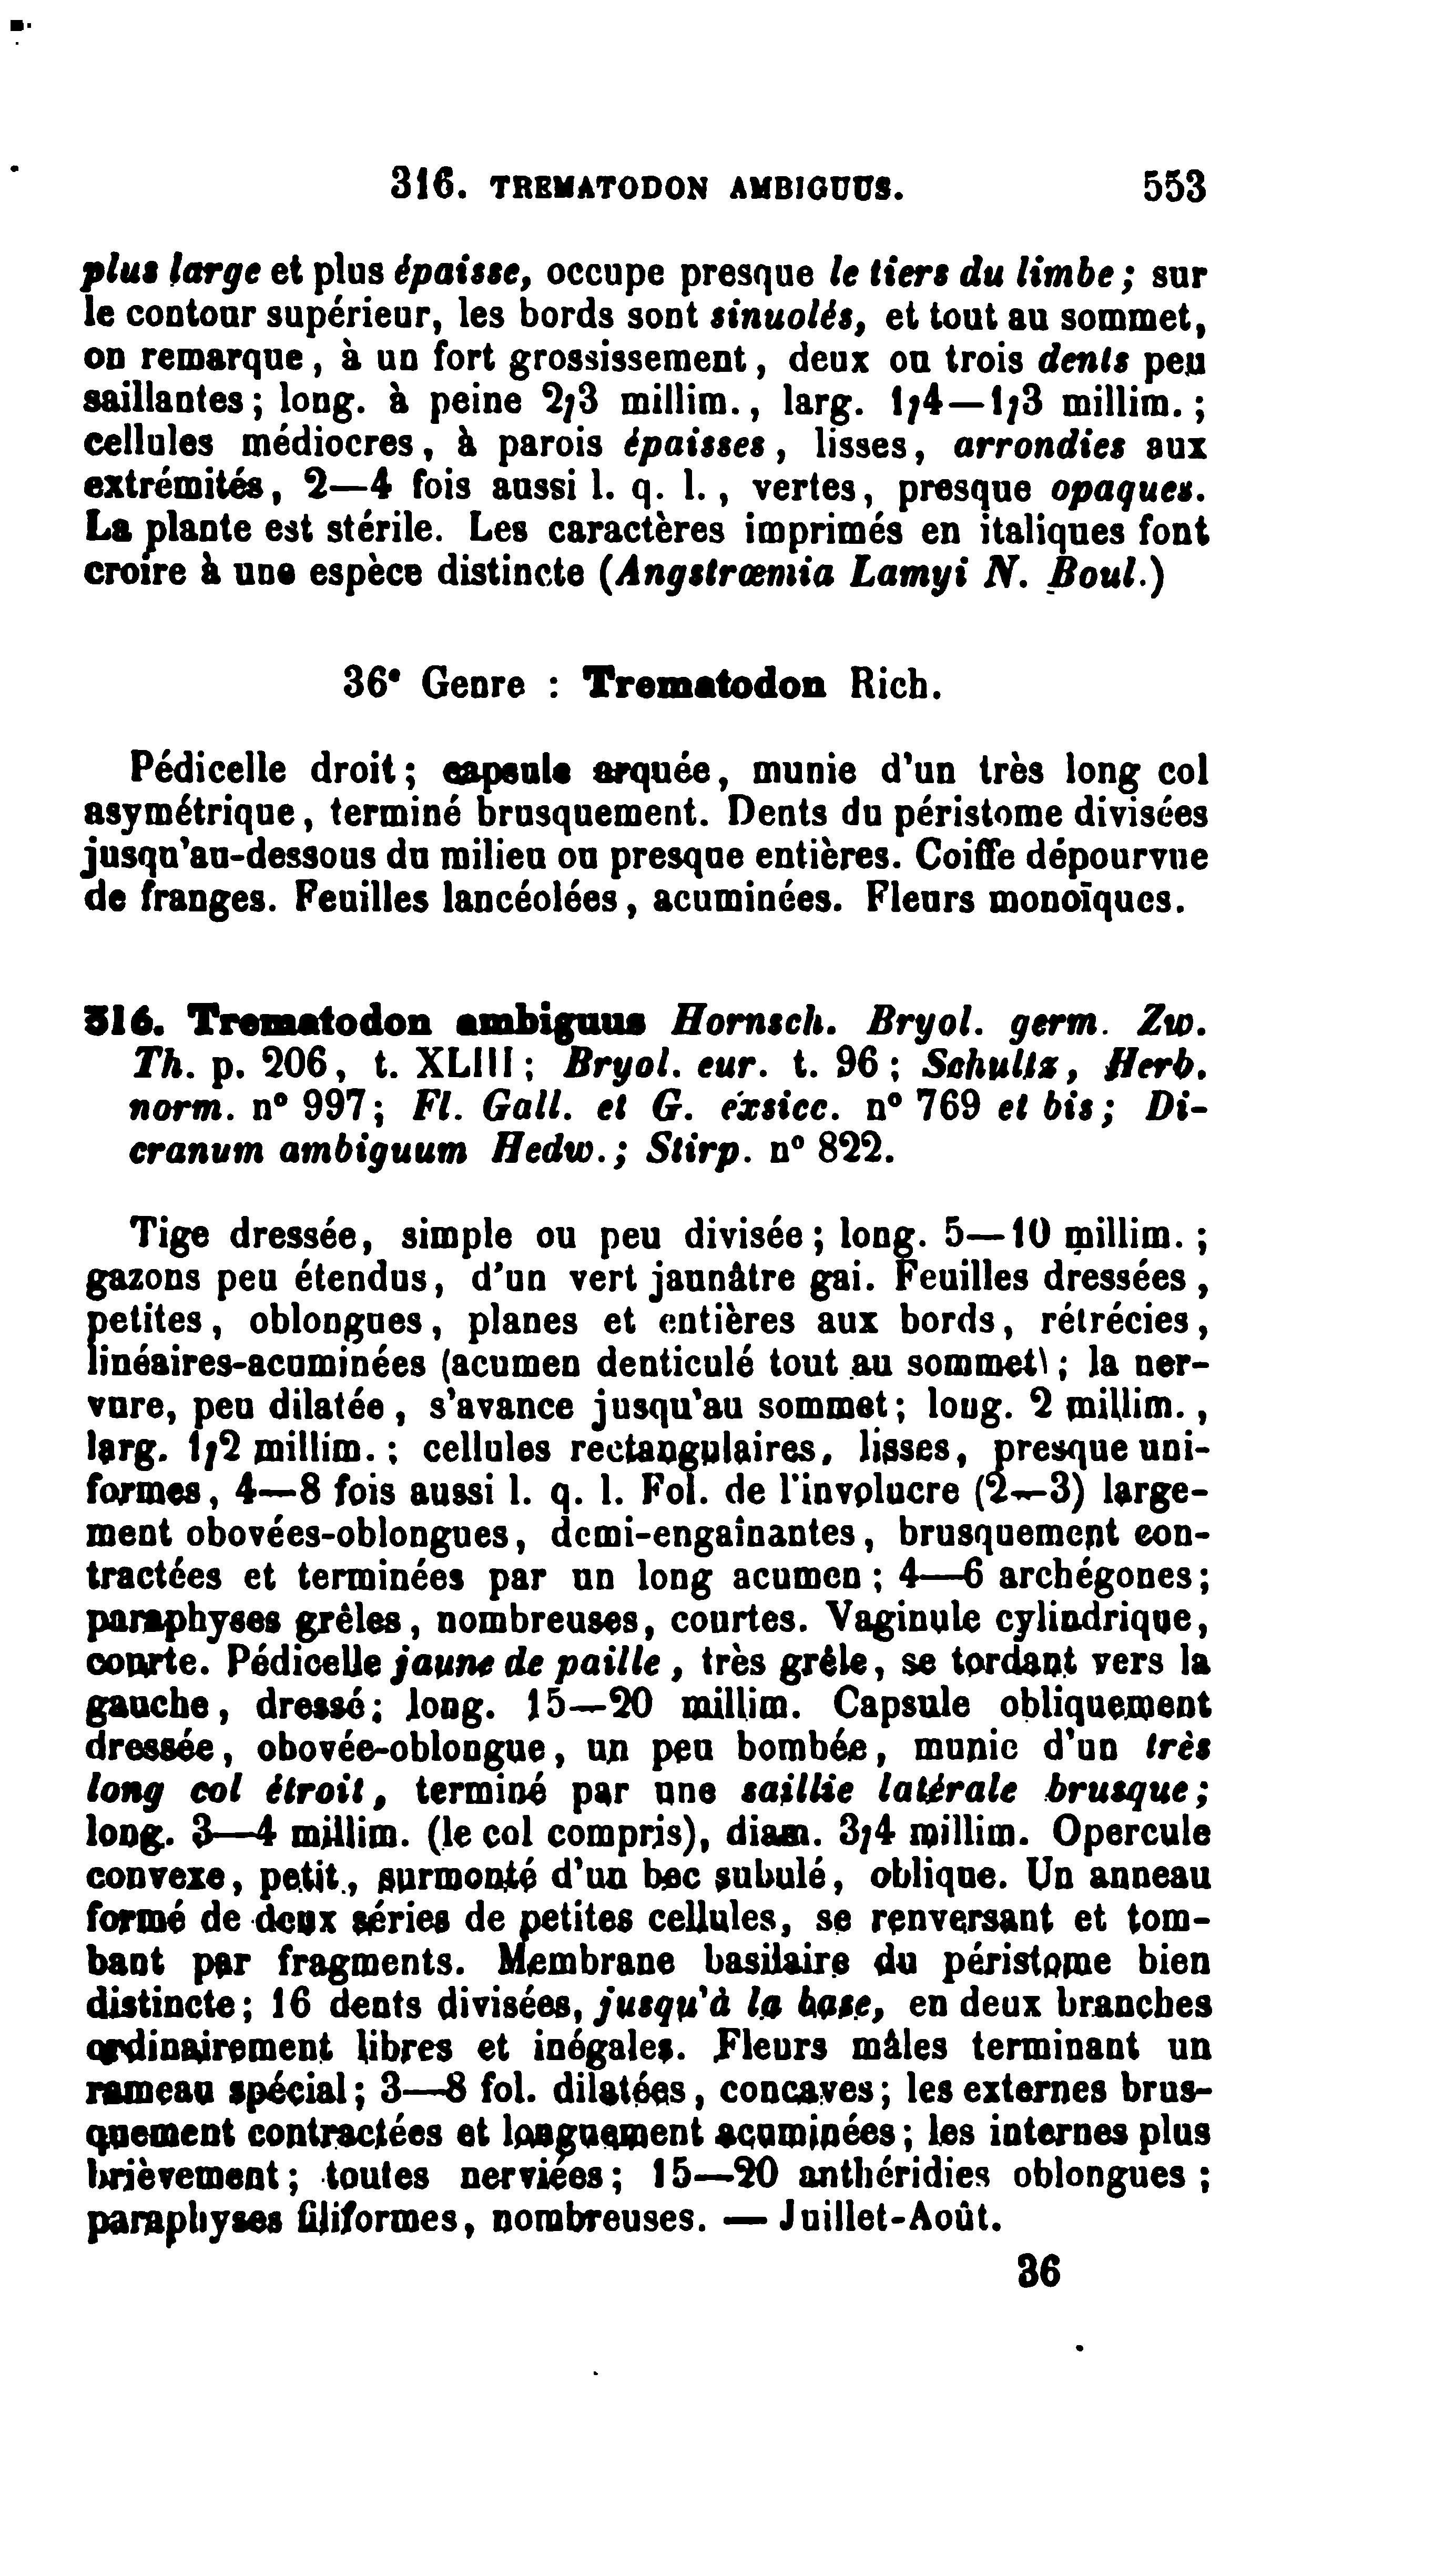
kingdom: Plantae
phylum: Bryophyta
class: Bryopsida
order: Dicranales
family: Ditrichaceae
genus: Ditrichum
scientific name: Ditrichum lineare
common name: Dark cow-hair moss
